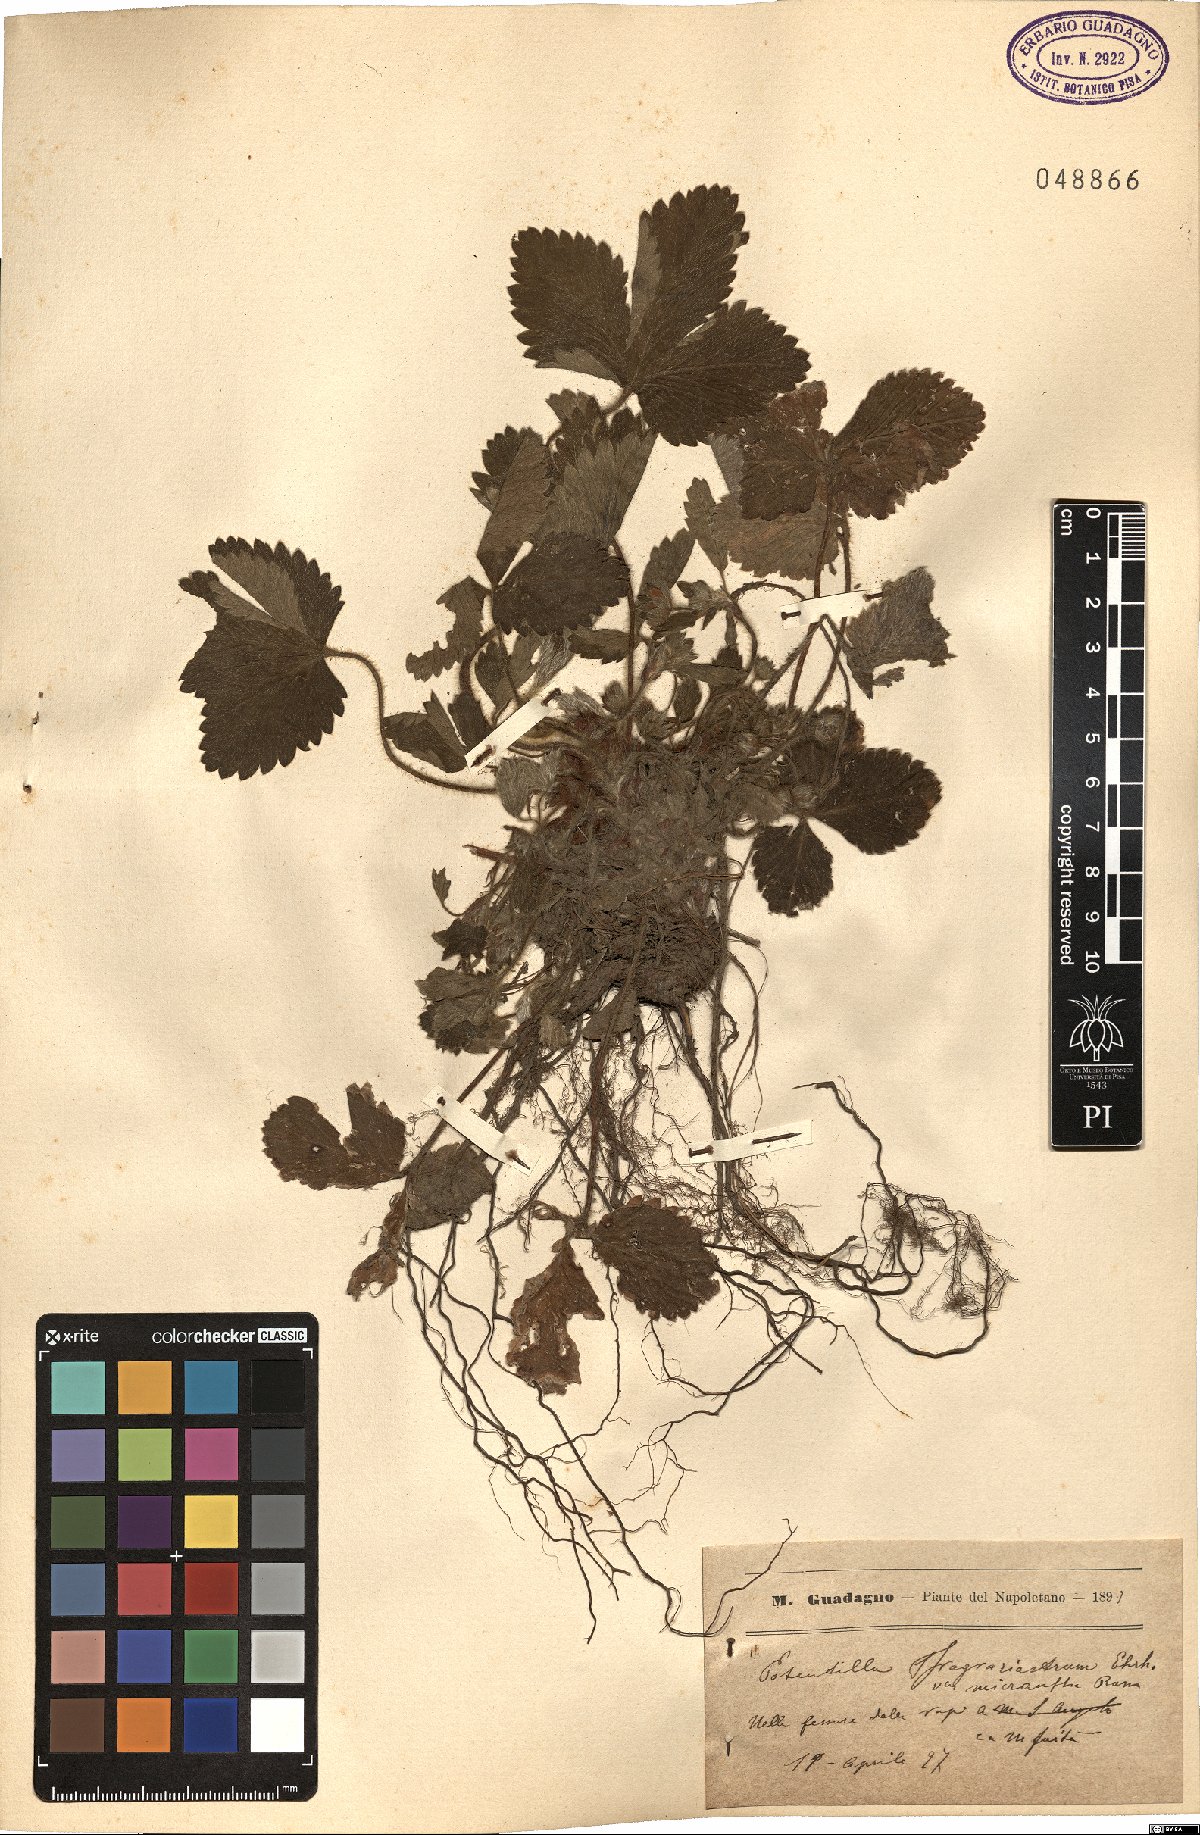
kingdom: Plantae
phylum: Tracheophyta
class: Magnoliopsida
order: Rosales
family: Rosaceae
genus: Potentilla
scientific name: Potentilla micrantha
